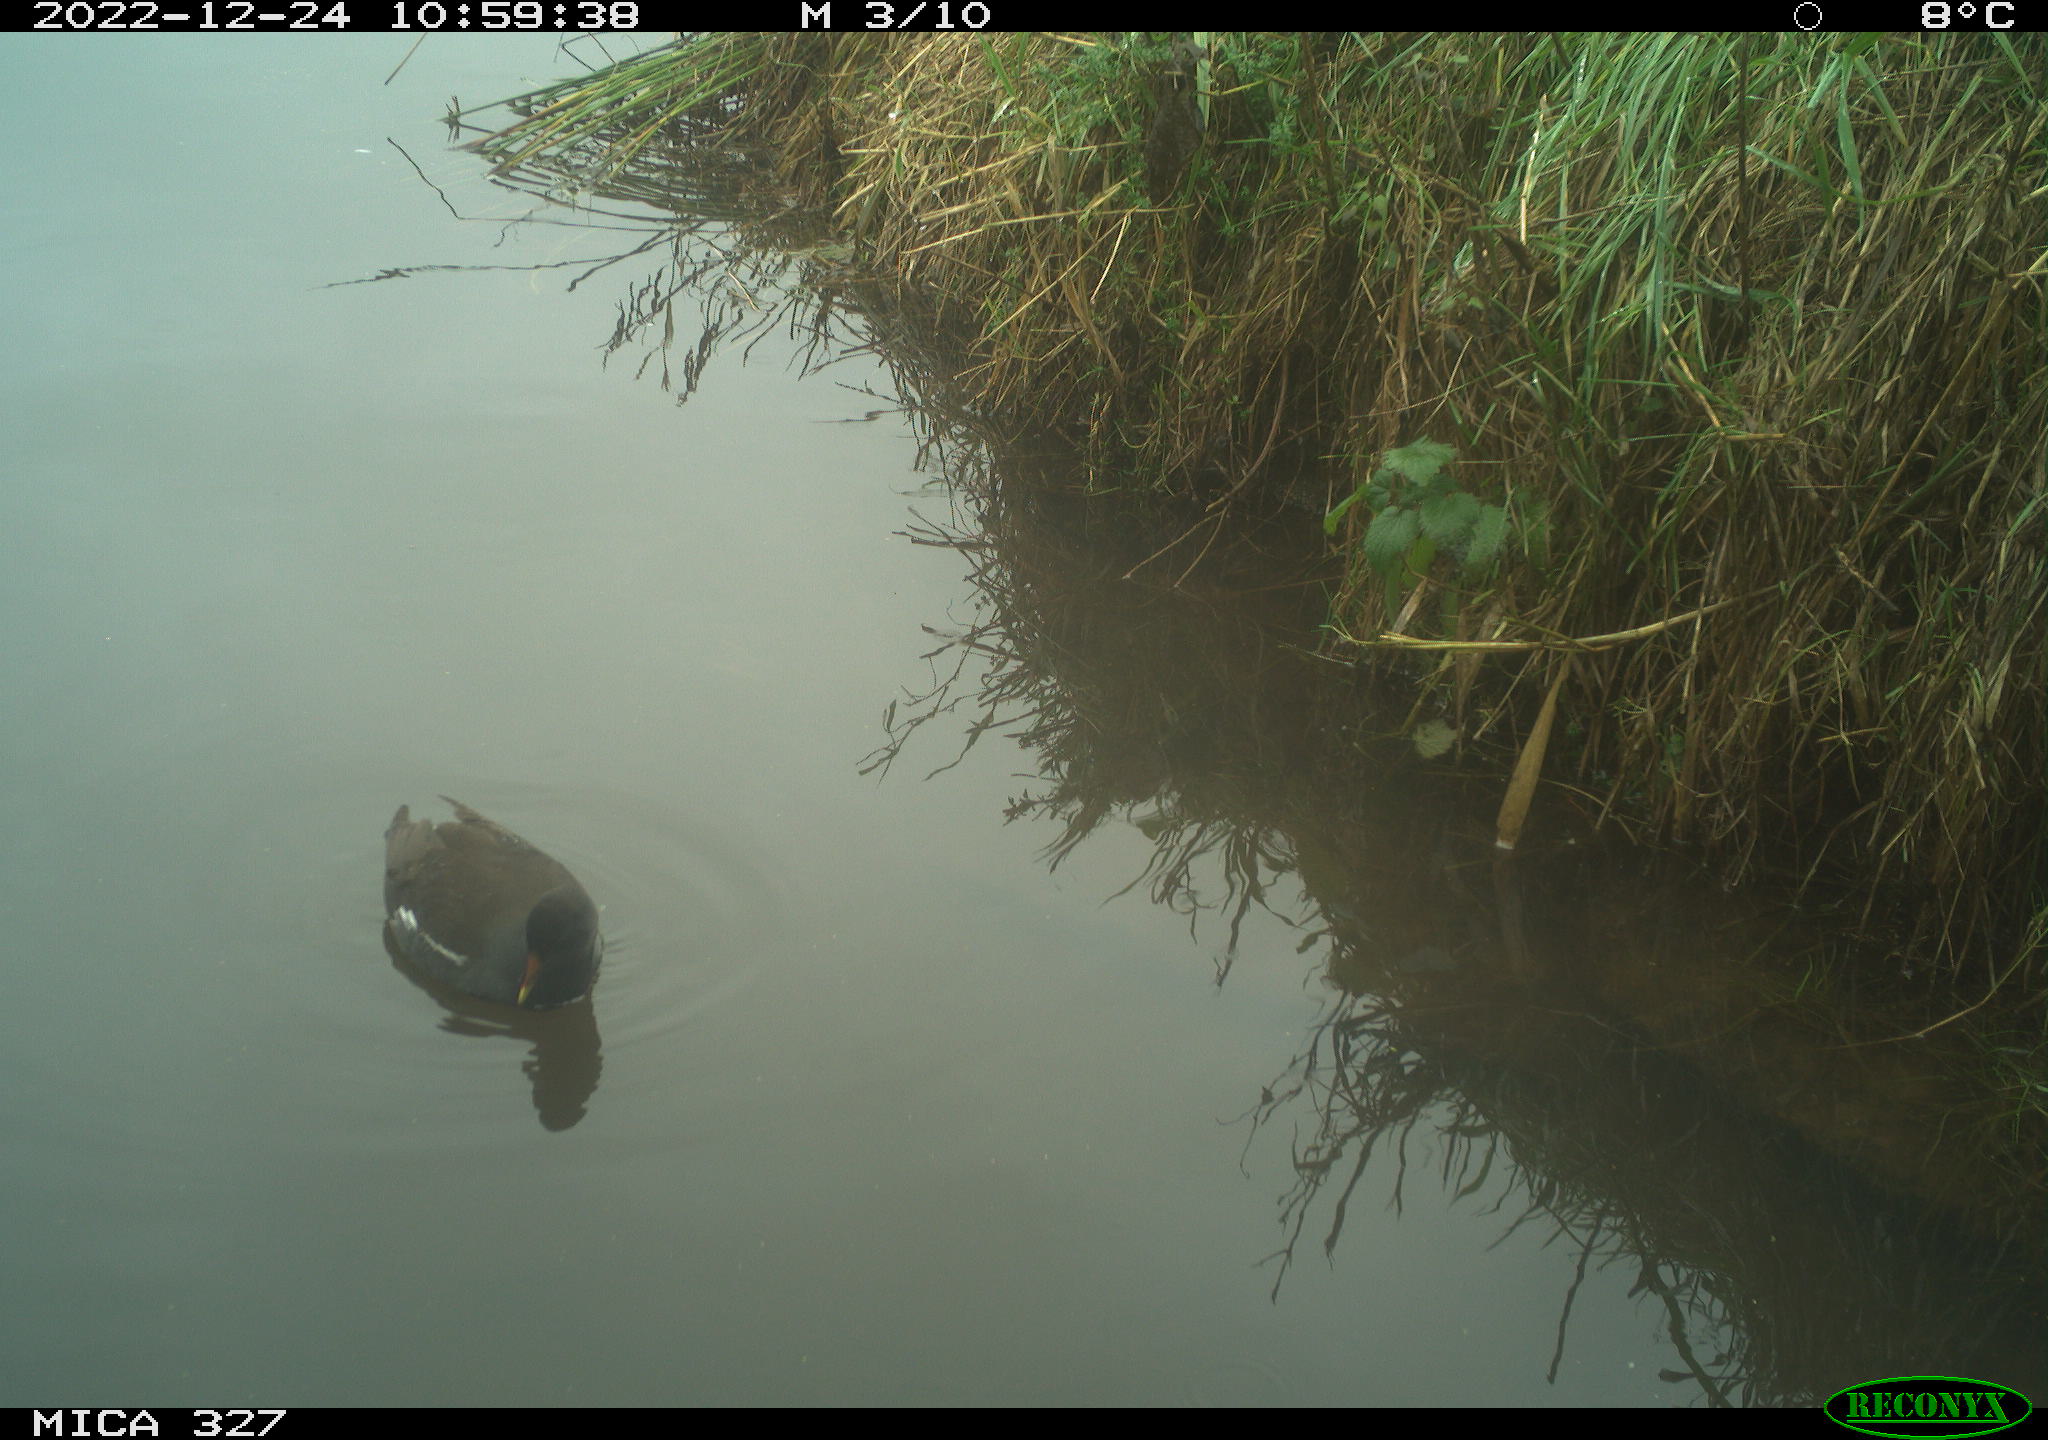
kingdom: Animalia
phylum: Chordata
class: Aves
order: Gruiformes
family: Rallidae
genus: Gallinula
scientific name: Gallinula chloropus
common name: Common moorhen
